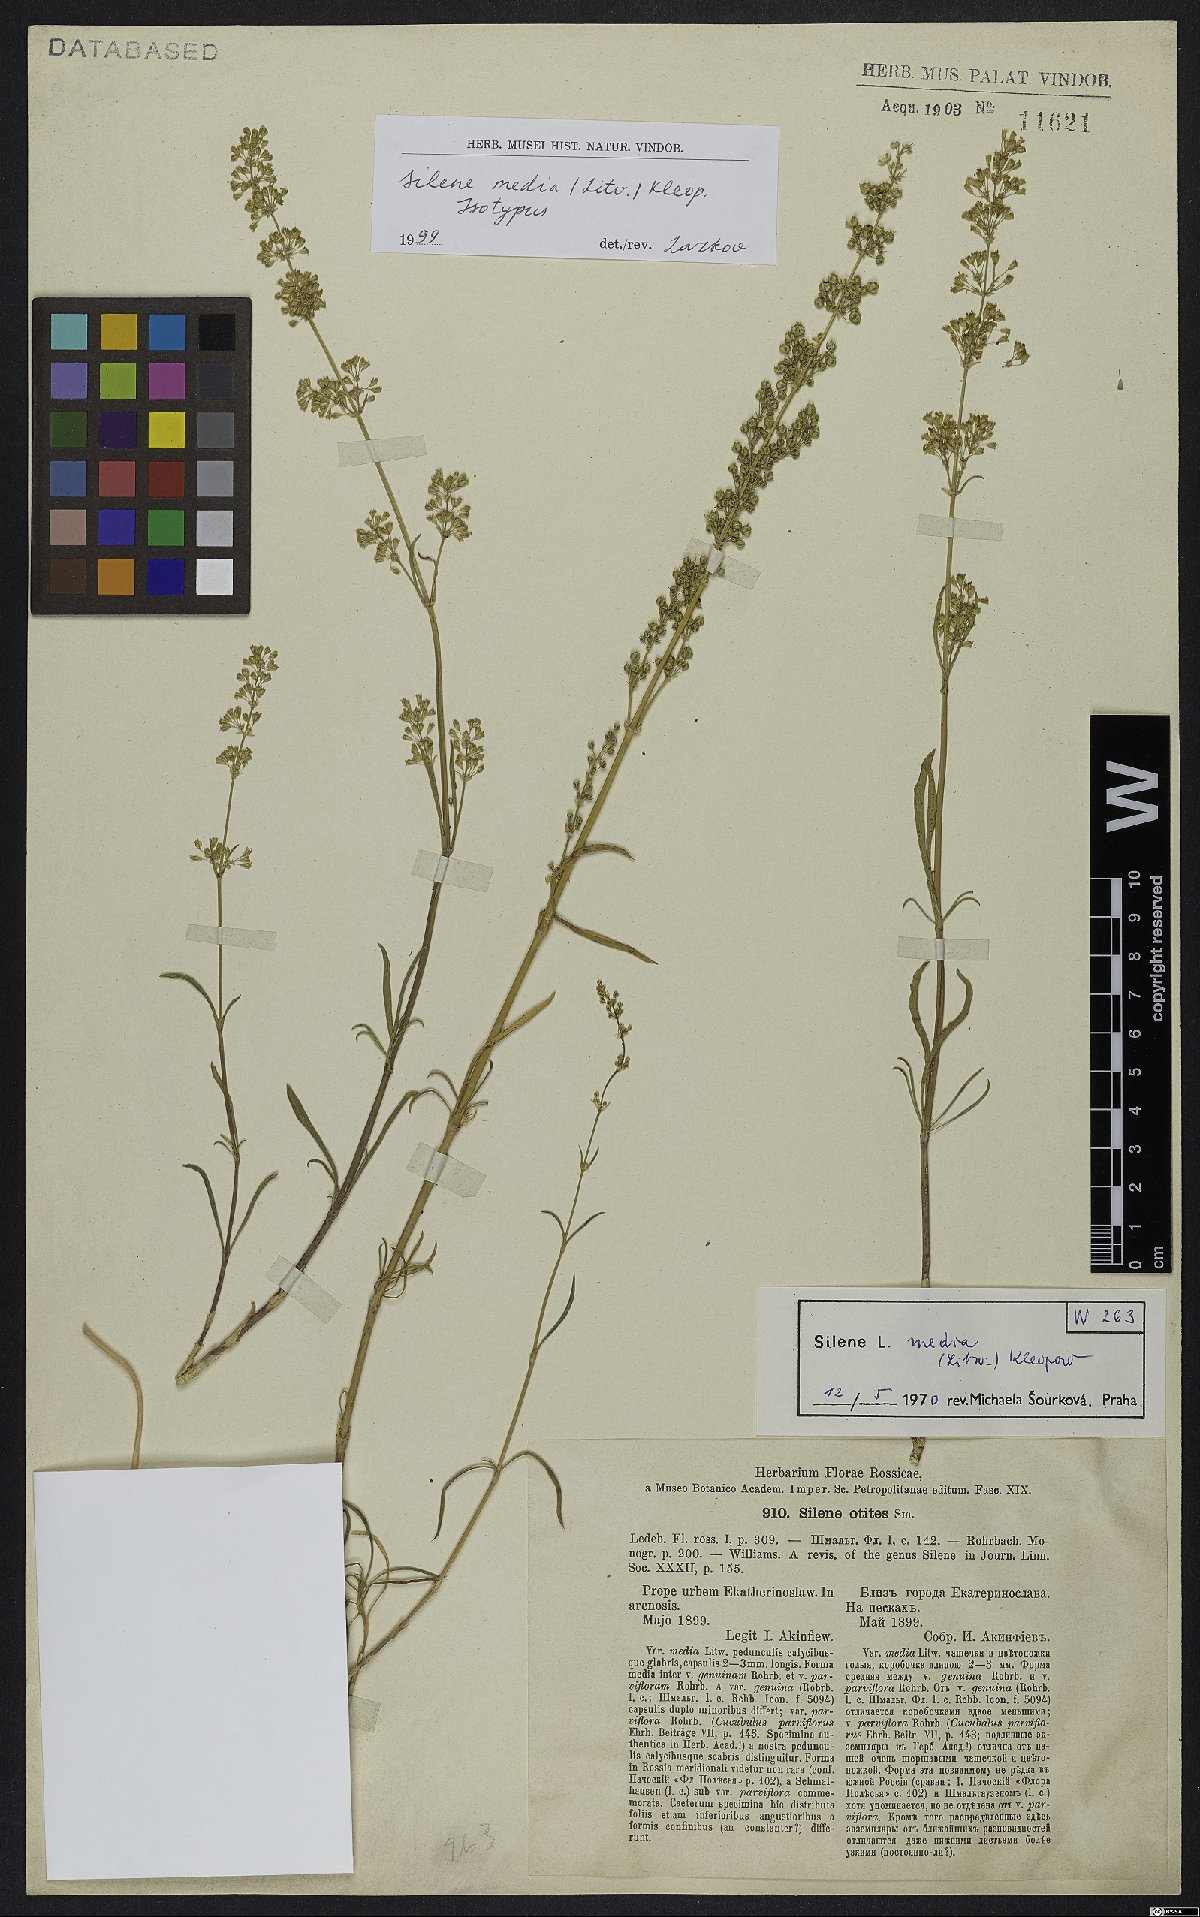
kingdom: Plantae
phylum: Tracheophyta
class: Magnoliopsida
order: Caryophyllales
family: Caryophyllaceae
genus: Silene
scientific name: Silene media
